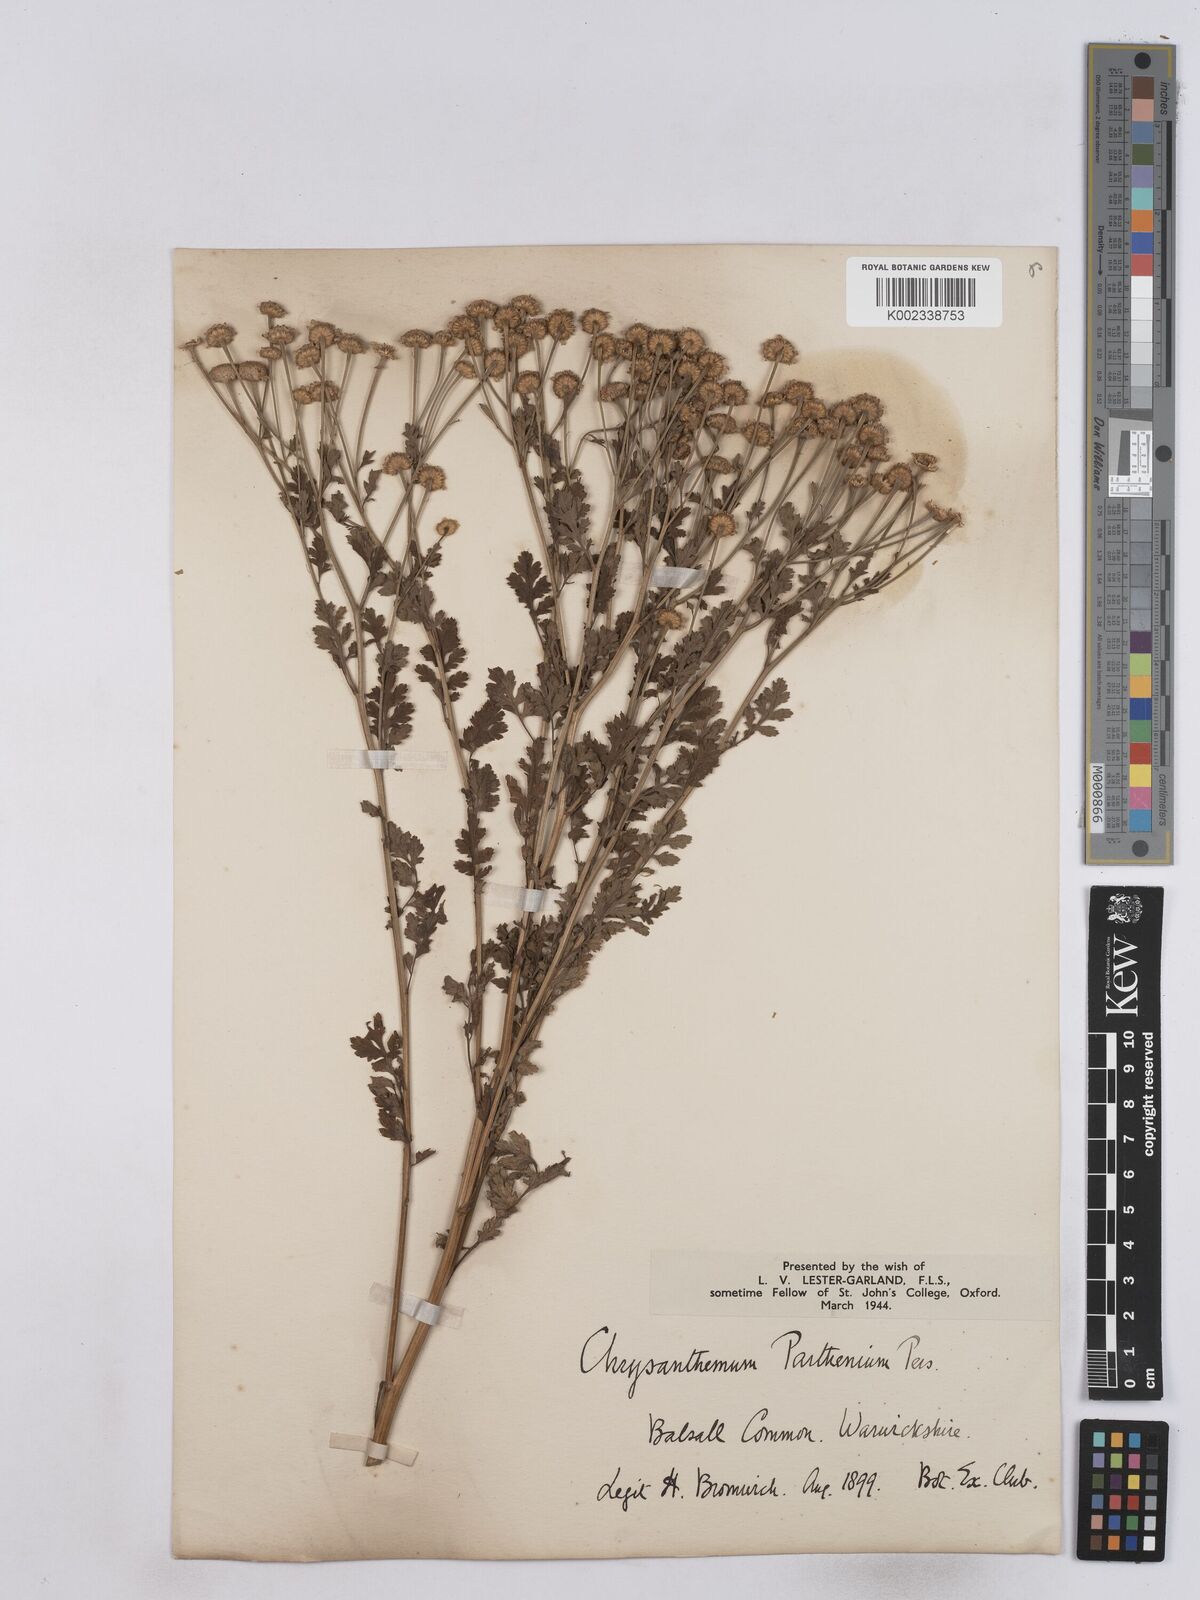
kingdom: Plantae
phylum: Tracheophyta
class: Magnoliopsida
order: Asterales
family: Asteraceae
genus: Tanacetum
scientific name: Tanacetum parthenium
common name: Feverfew
